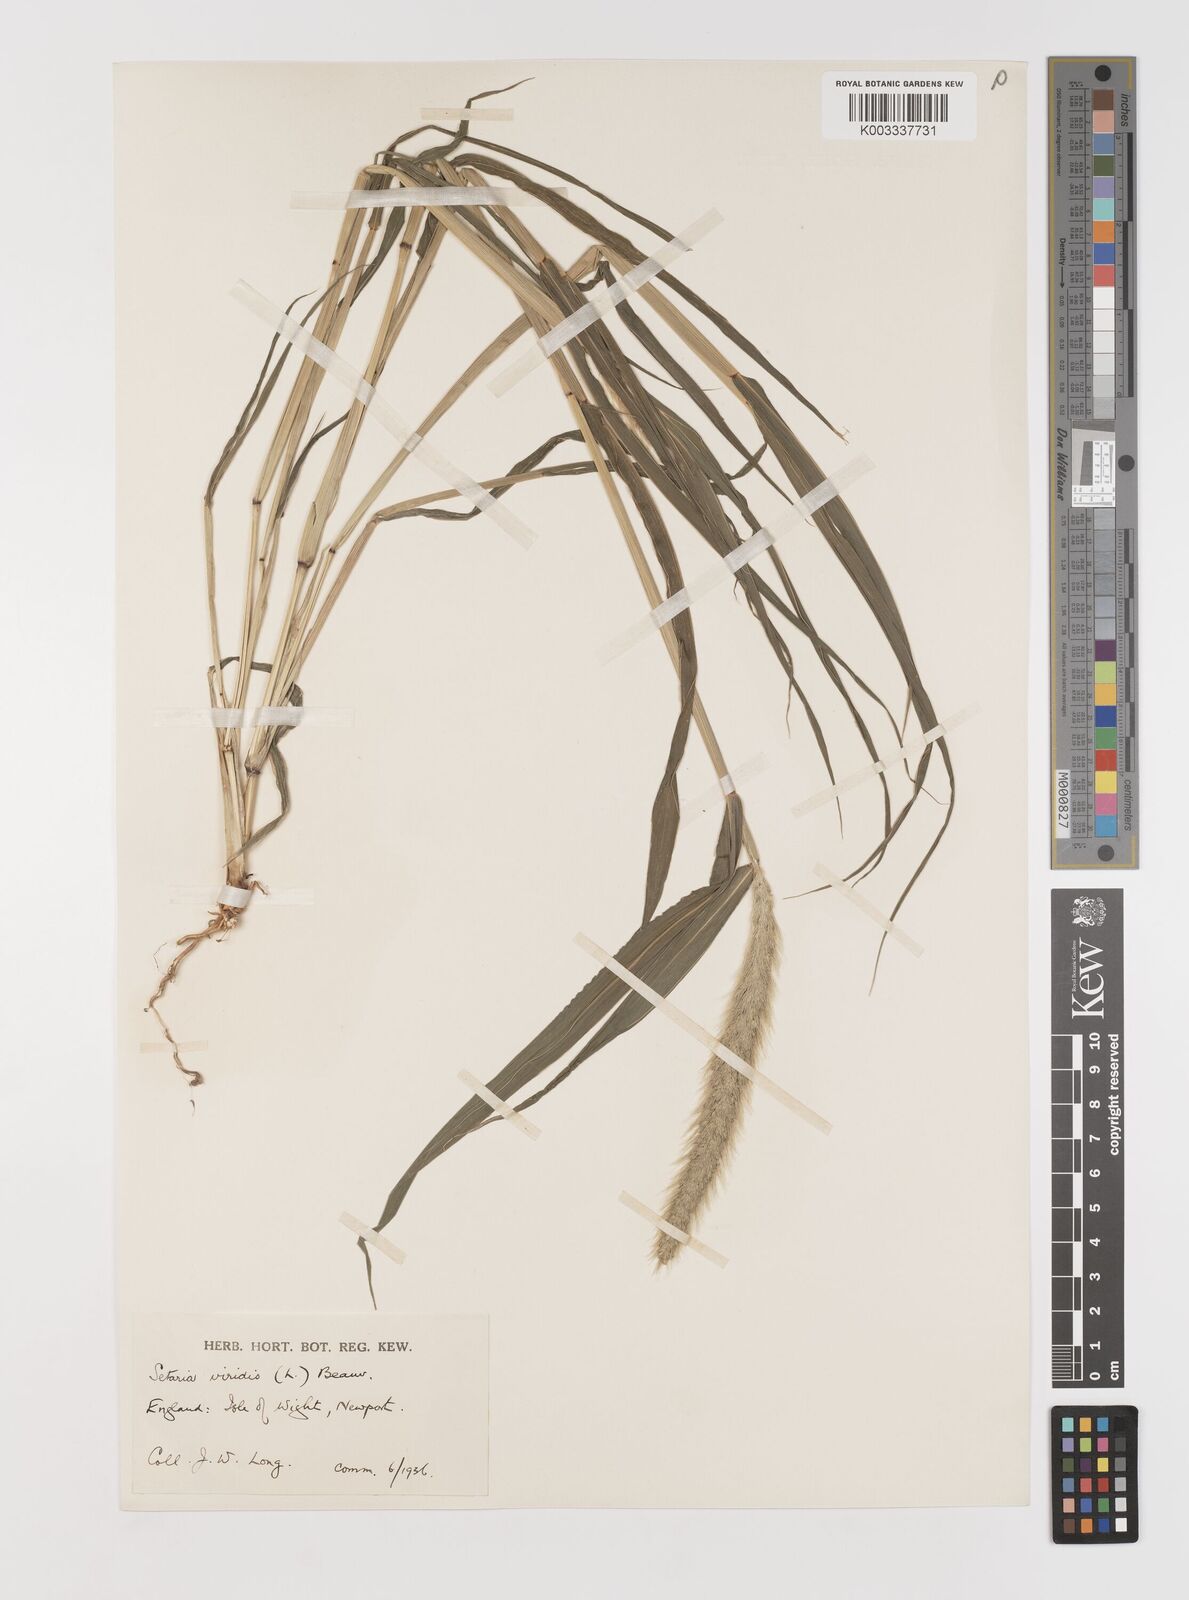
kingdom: Plantae
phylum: Tracheophyta
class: Liliopsida
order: Poales
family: Poaceae
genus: Setaria
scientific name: Setaria viridis
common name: Green bristlegrass
